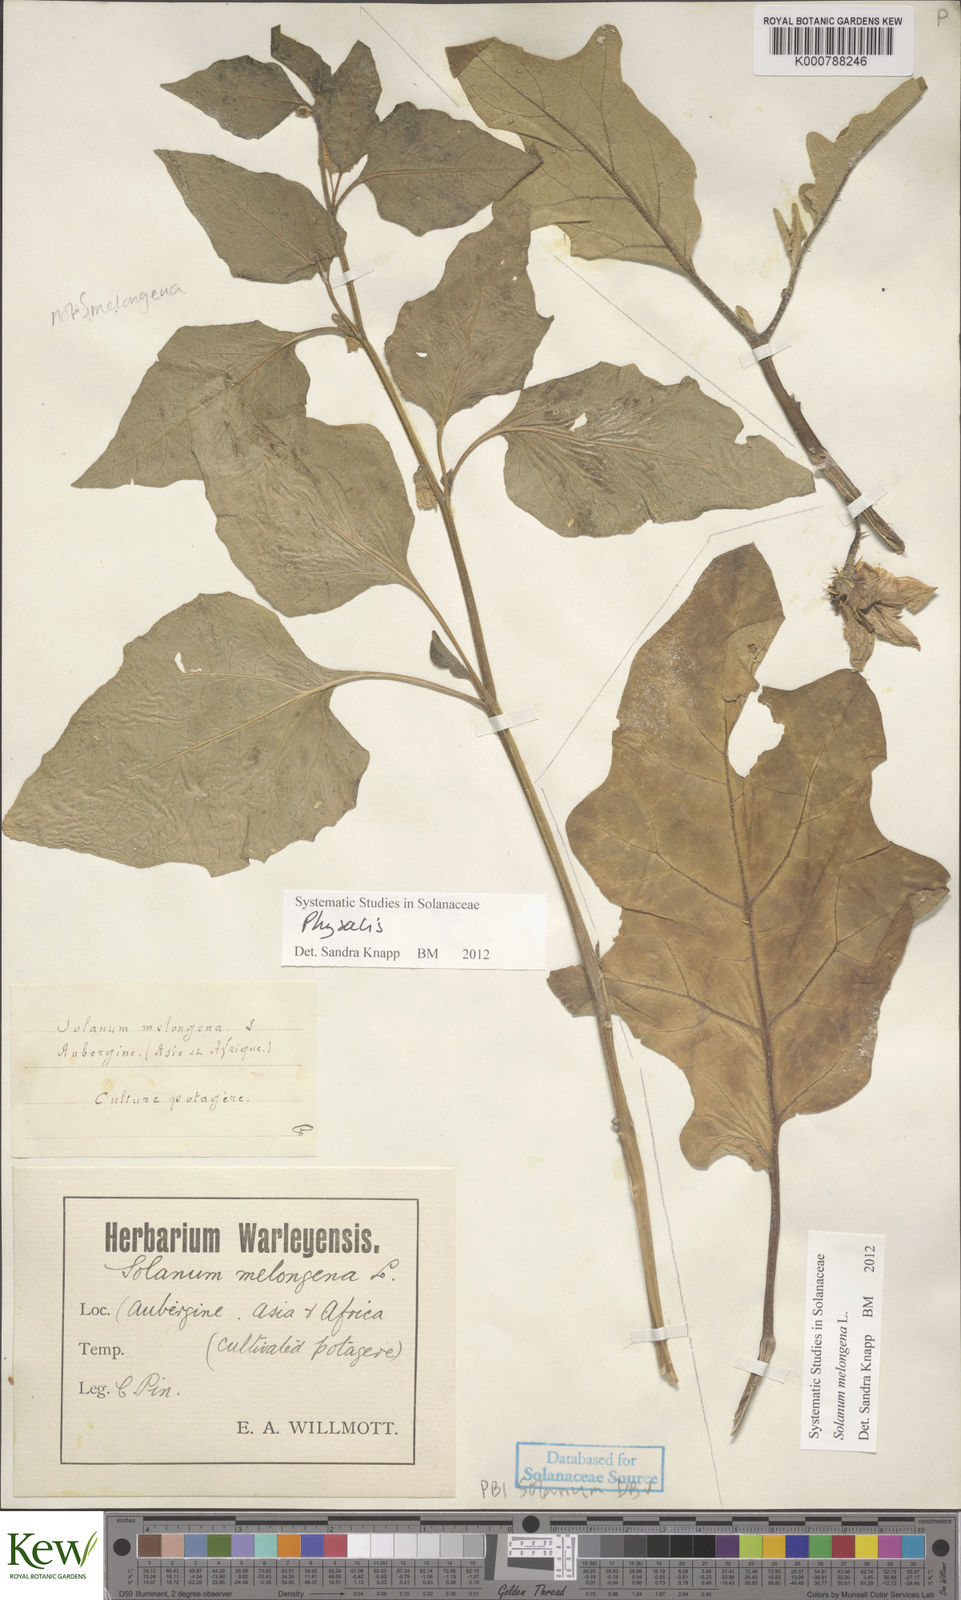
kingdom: Plantae
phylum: Tracheophyta
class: Magnoliopsida
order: Solanales
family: Solanaceae
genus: Solanum
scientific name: Solanum melongena
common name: Eggplant
